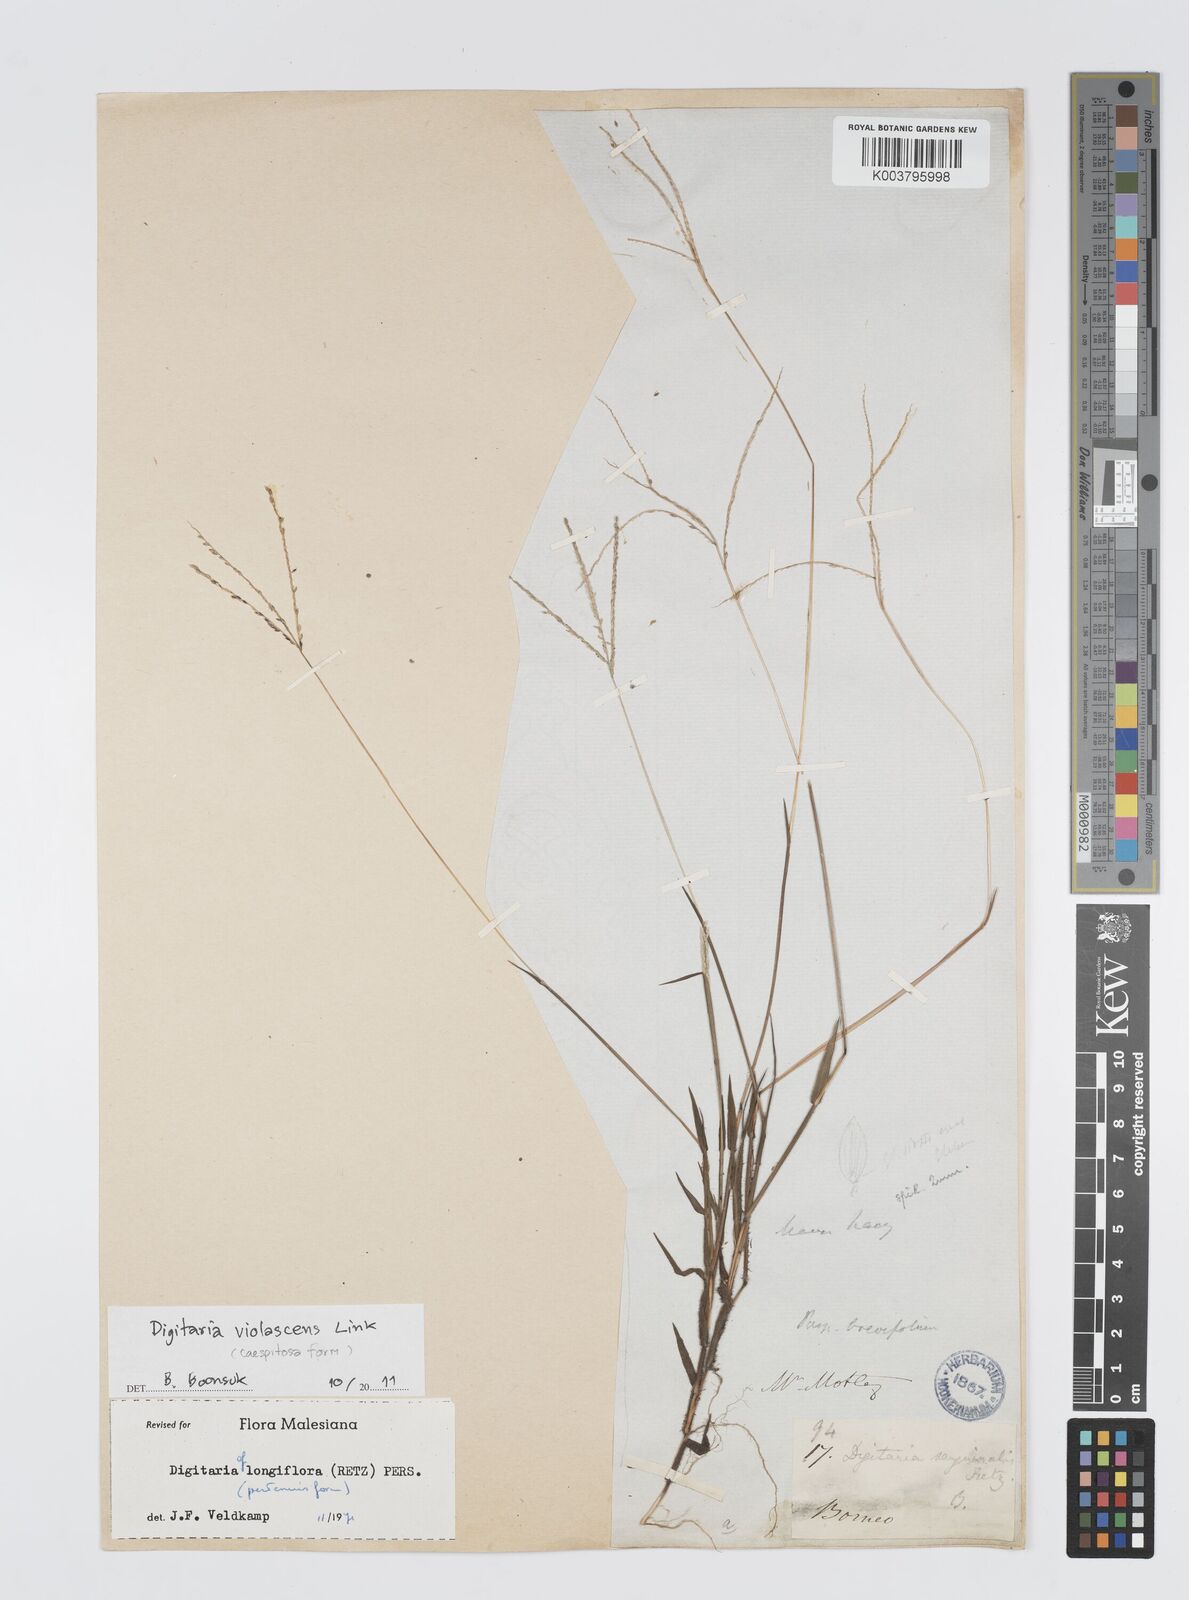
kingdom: Plantae
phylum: Tracheophyta
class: Liliopsida
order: Poales
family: Poaceae
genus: Digitaria
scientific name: Digitaria violascens
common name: Violet crabgrass
